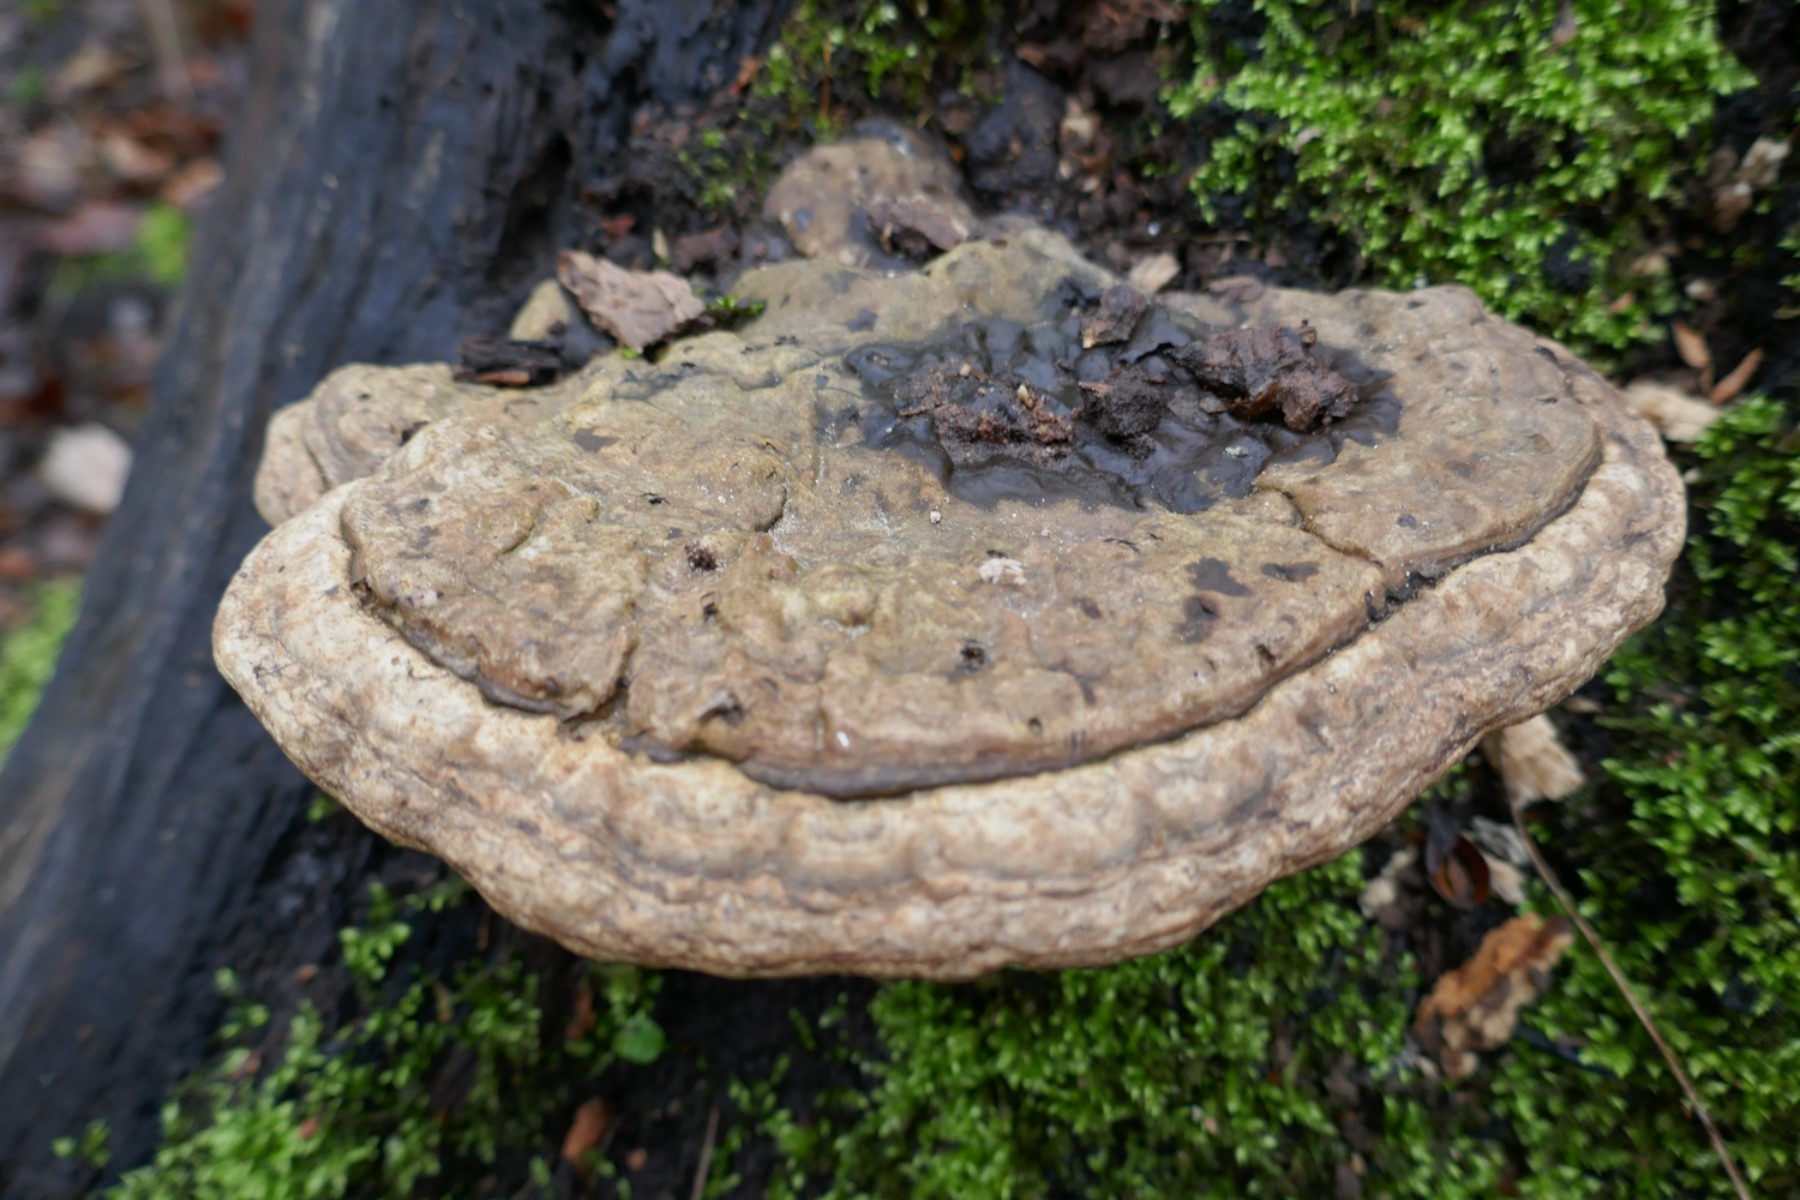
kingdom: Fungi
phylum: Basidiomycota
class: Agaricomycetes
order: Polyporales
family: Polyporaceae
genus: Ganoderma
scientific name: Ganoderma applanatum
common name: flad lakporesvamp
